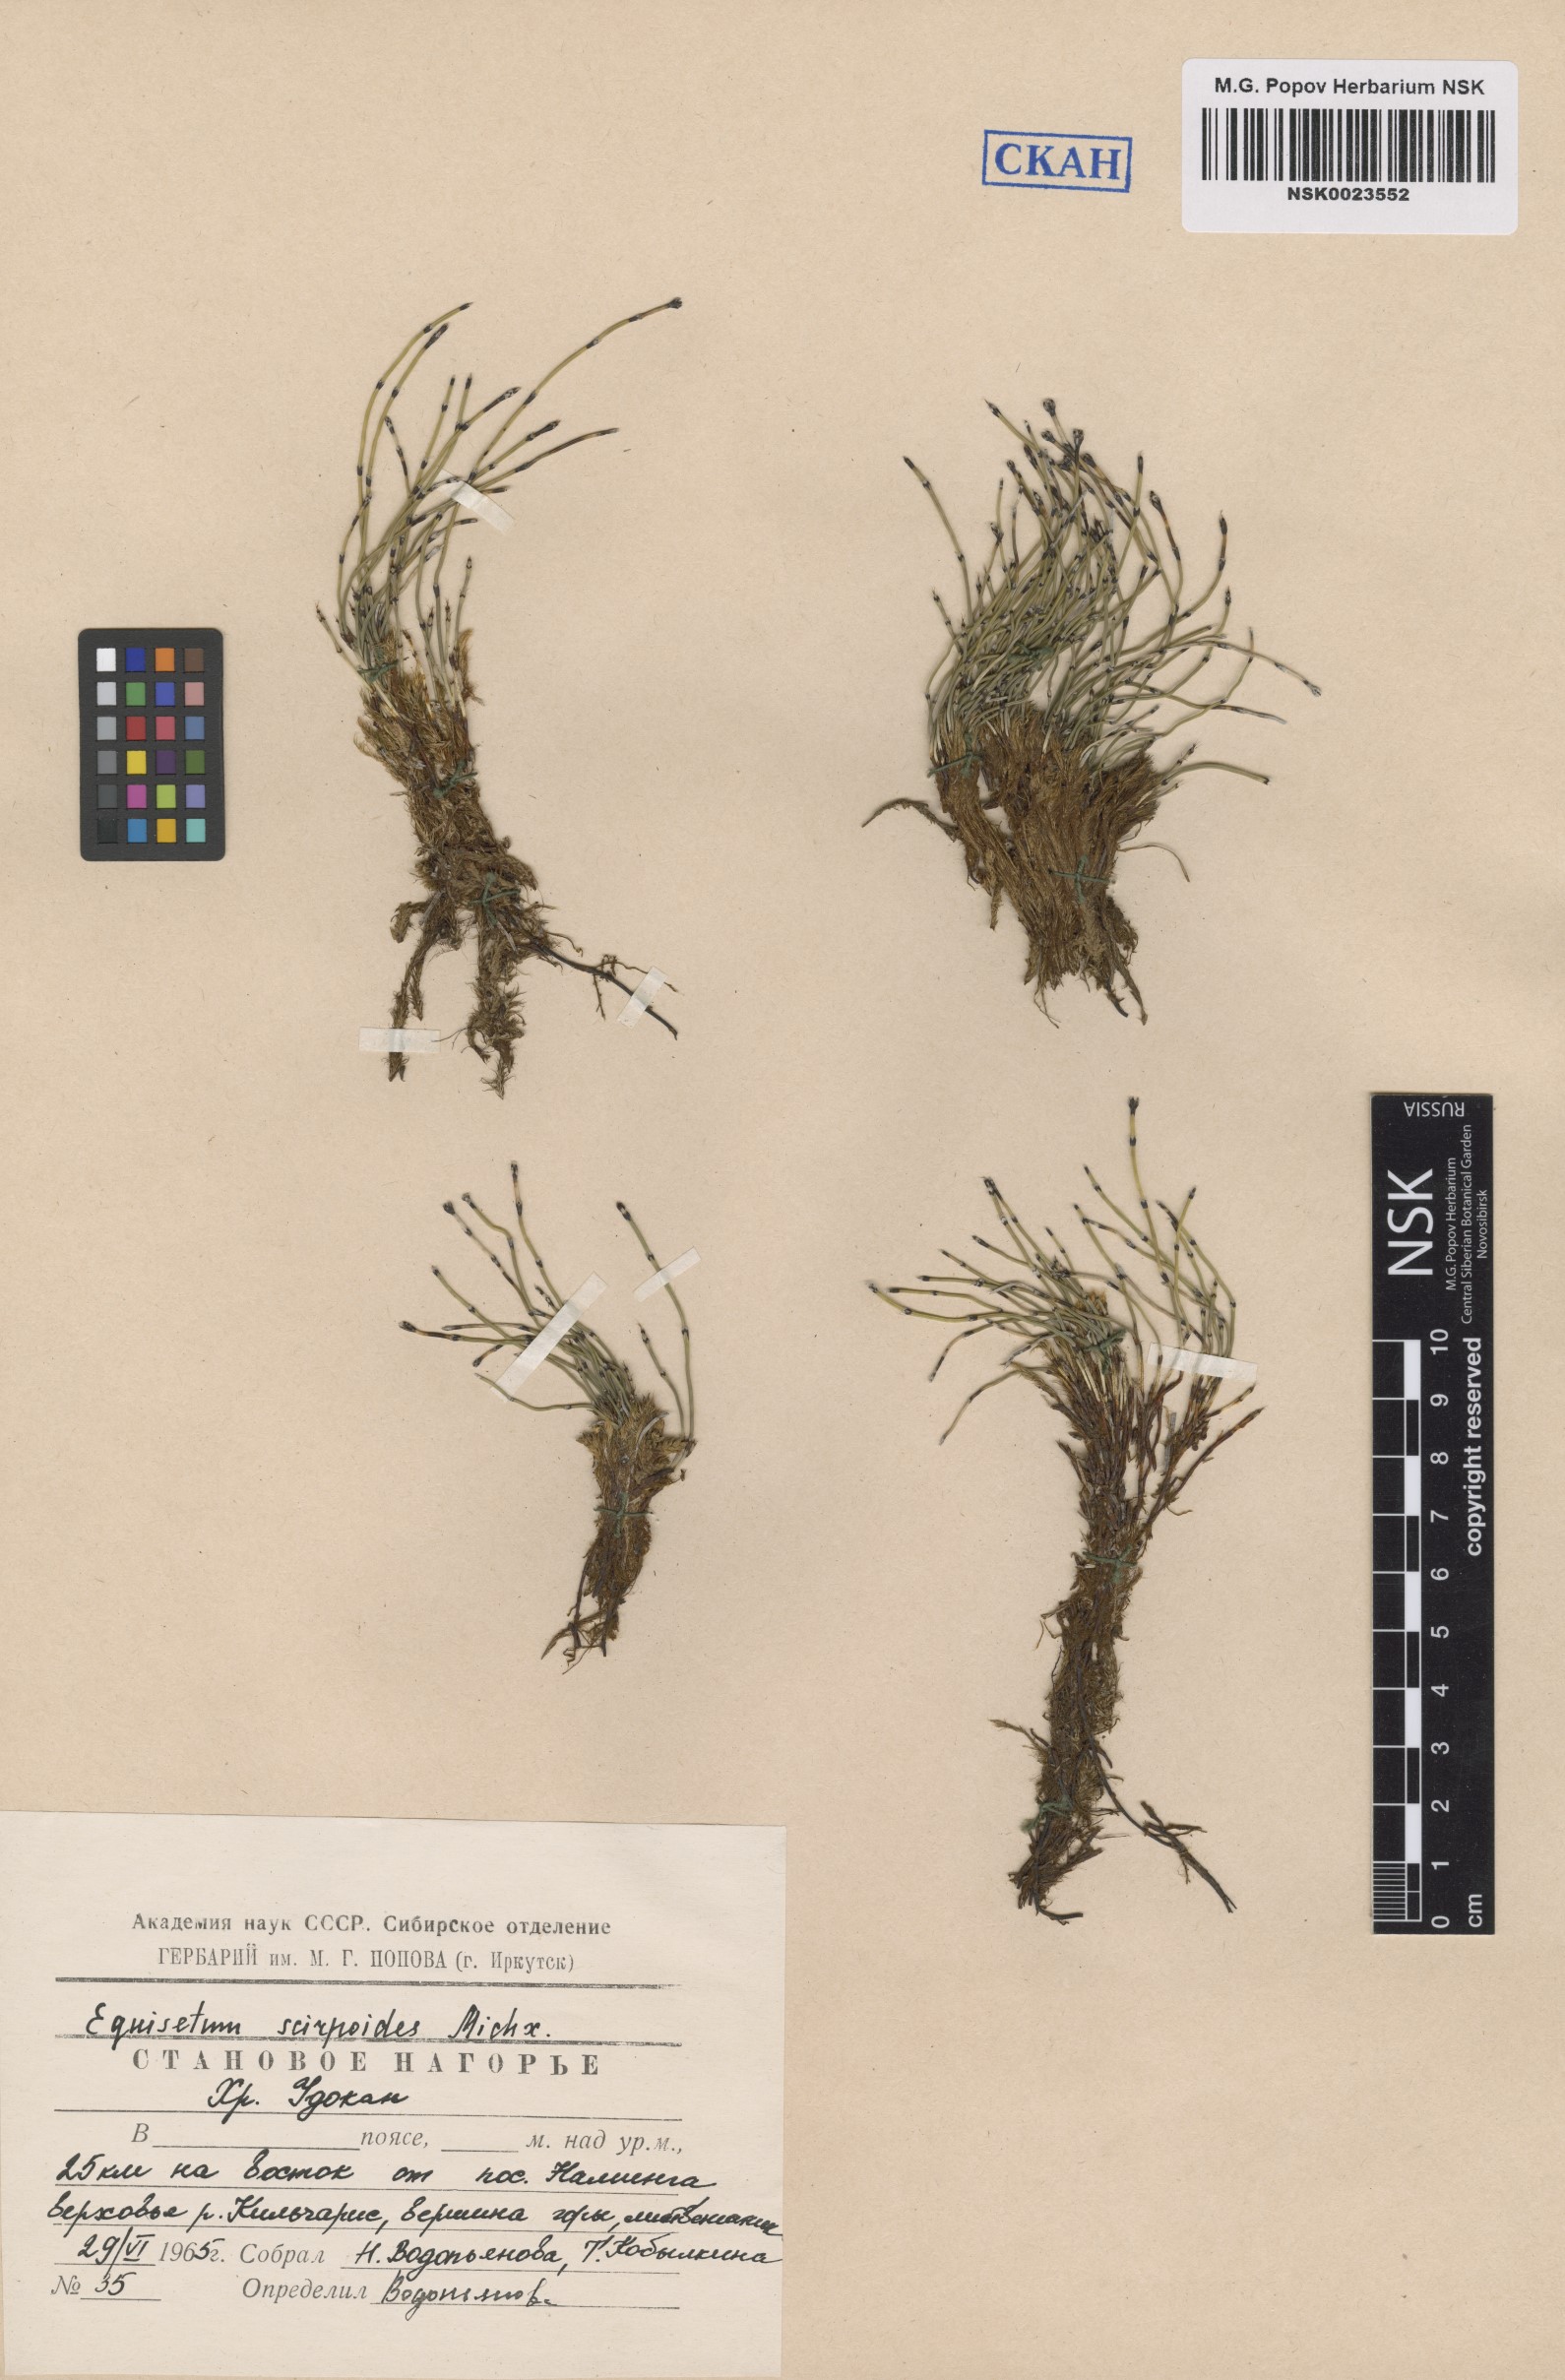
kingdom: Plantae
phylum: Tracheophyta
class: Polypodiopsida
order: Equisetales
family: Equisetaceae
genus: Equisetum
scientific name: Equisetum scirpoides
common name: Delicate horsetail
